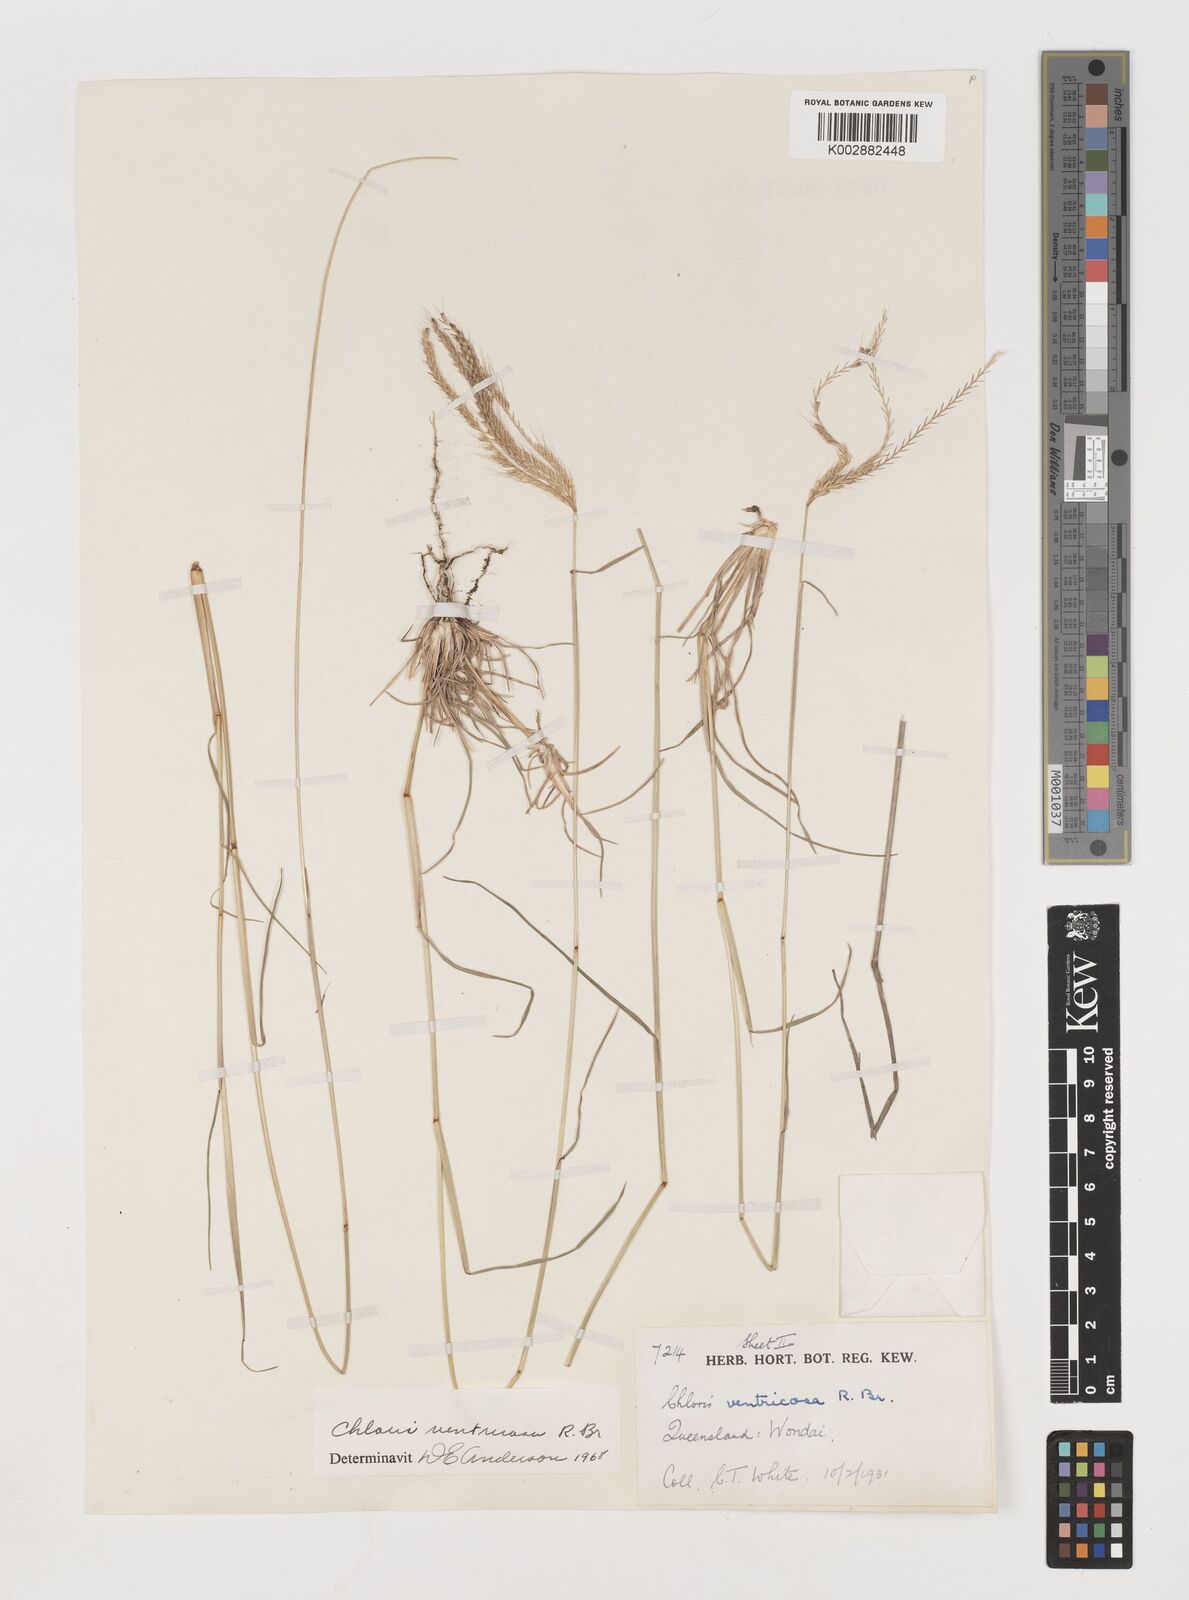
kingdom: Plantae
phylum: Tracheophyta
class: Liliopsida
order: Poales
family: Poaceae
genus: Chloris
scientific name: Chloris ventricosa
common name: Australian windmill grass
